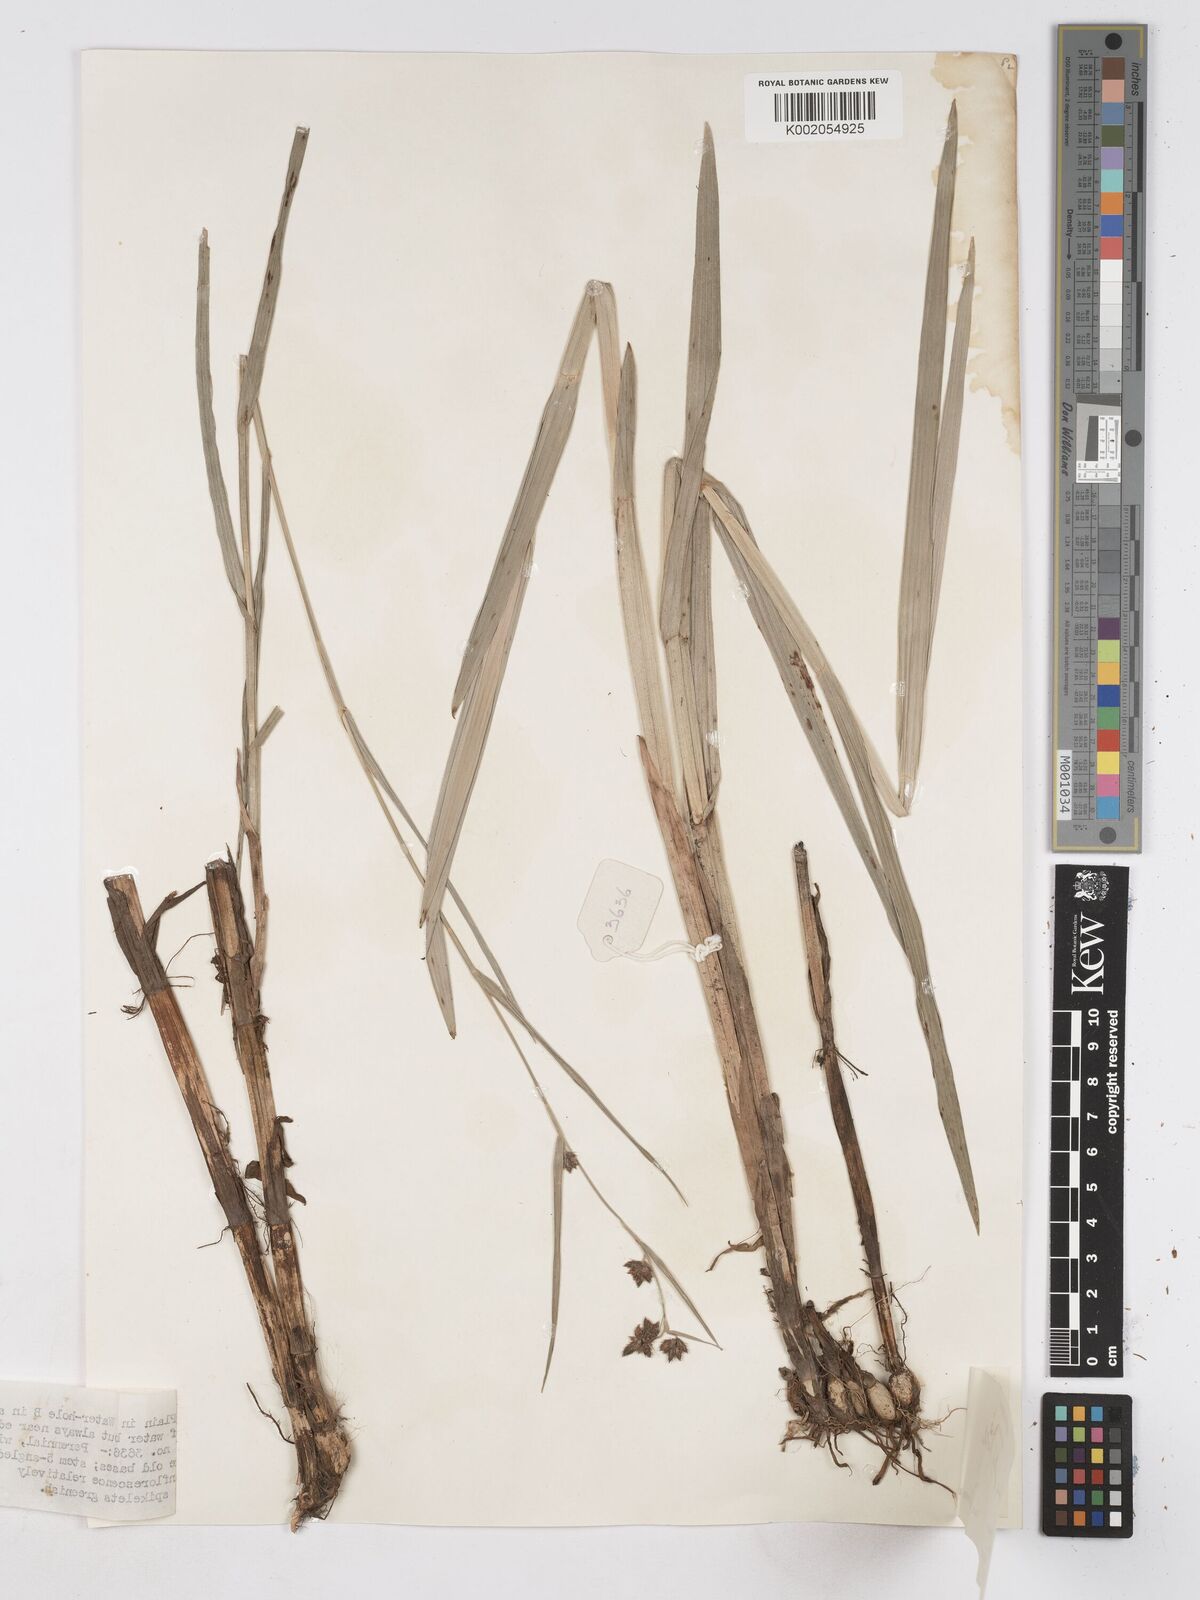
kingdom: Plantae
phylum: Tracheophyta
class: Liliopsida
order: Poales
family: Cyperaceae
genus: Fuirena
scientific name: Fuirena umbellata
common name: Yefen
